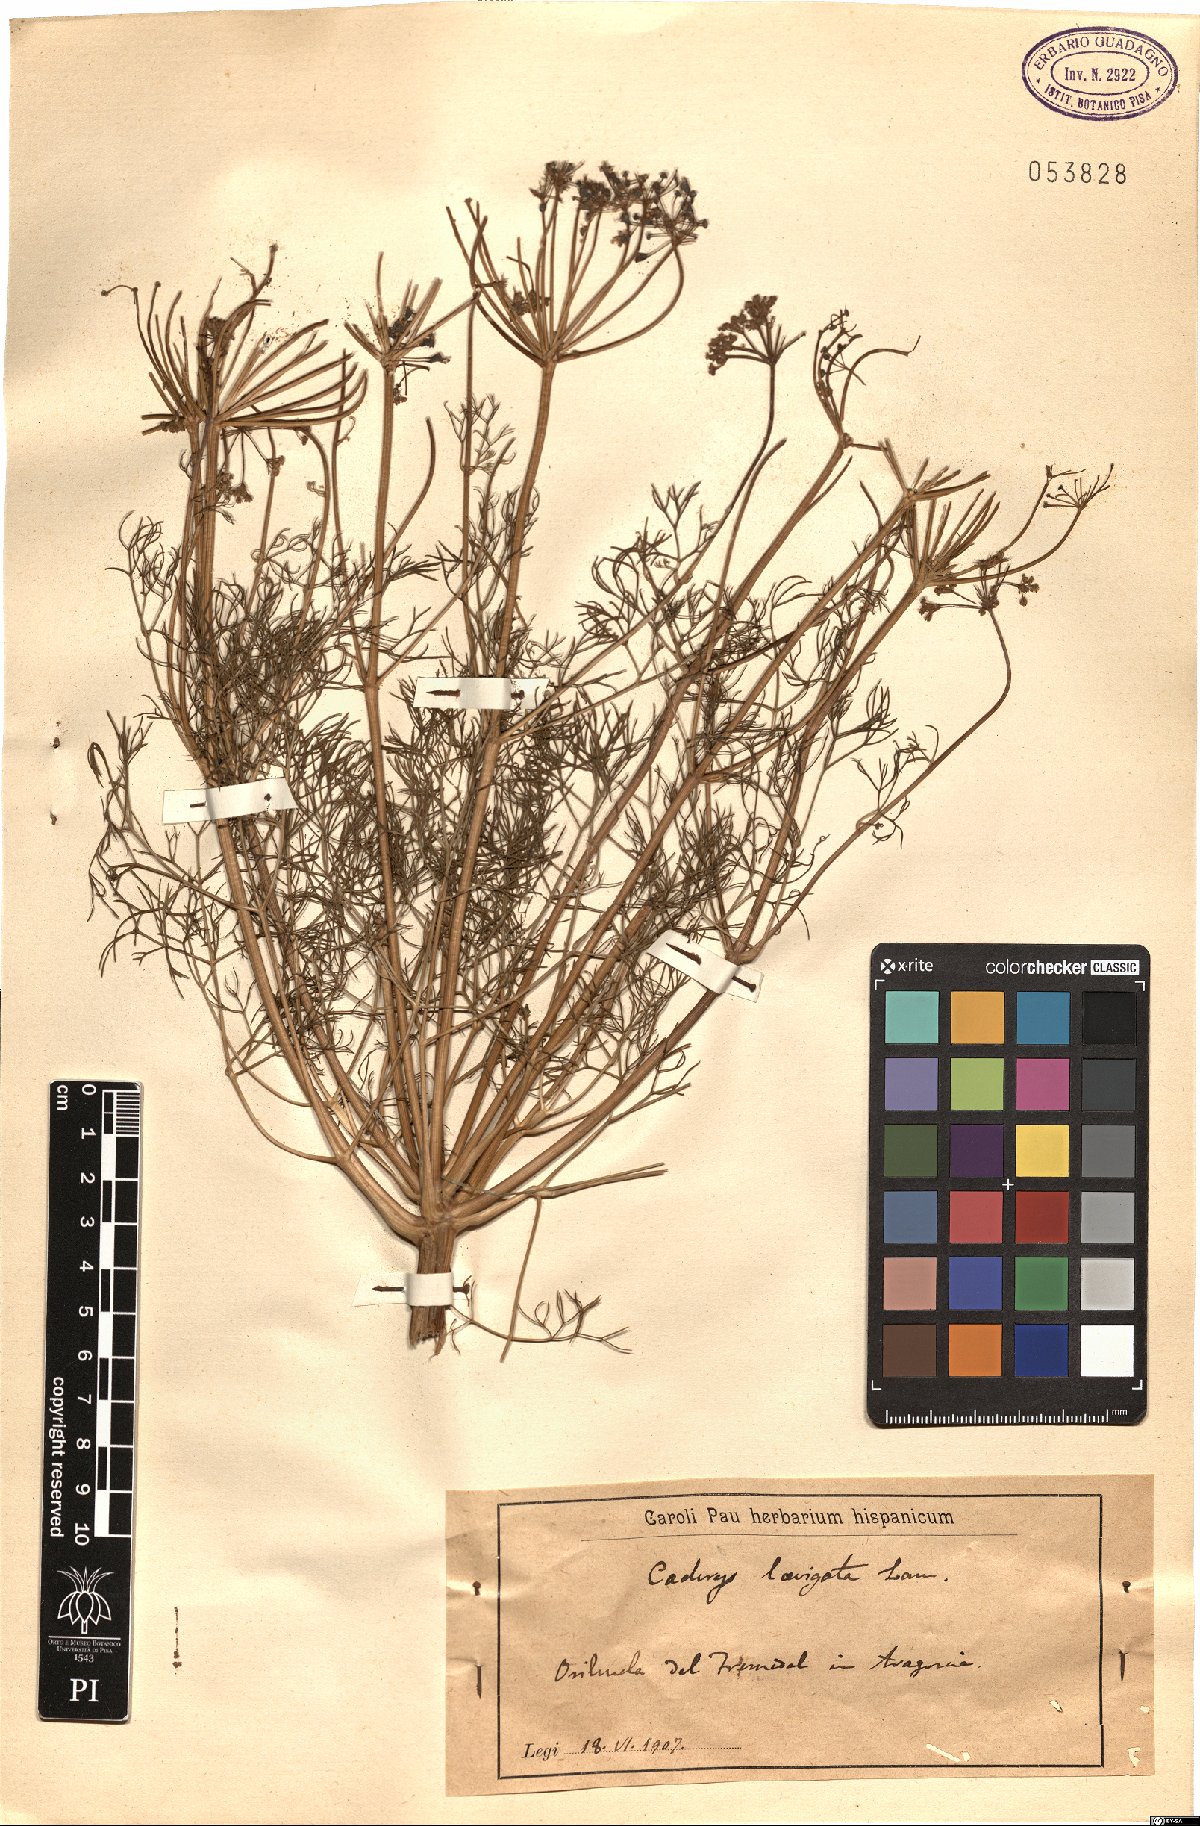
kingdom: Plantae
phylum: Tracheophyta
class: Magnoliopsida
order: Apiales
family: Apiaceae
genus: Prangos
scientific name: Prangos trifida
